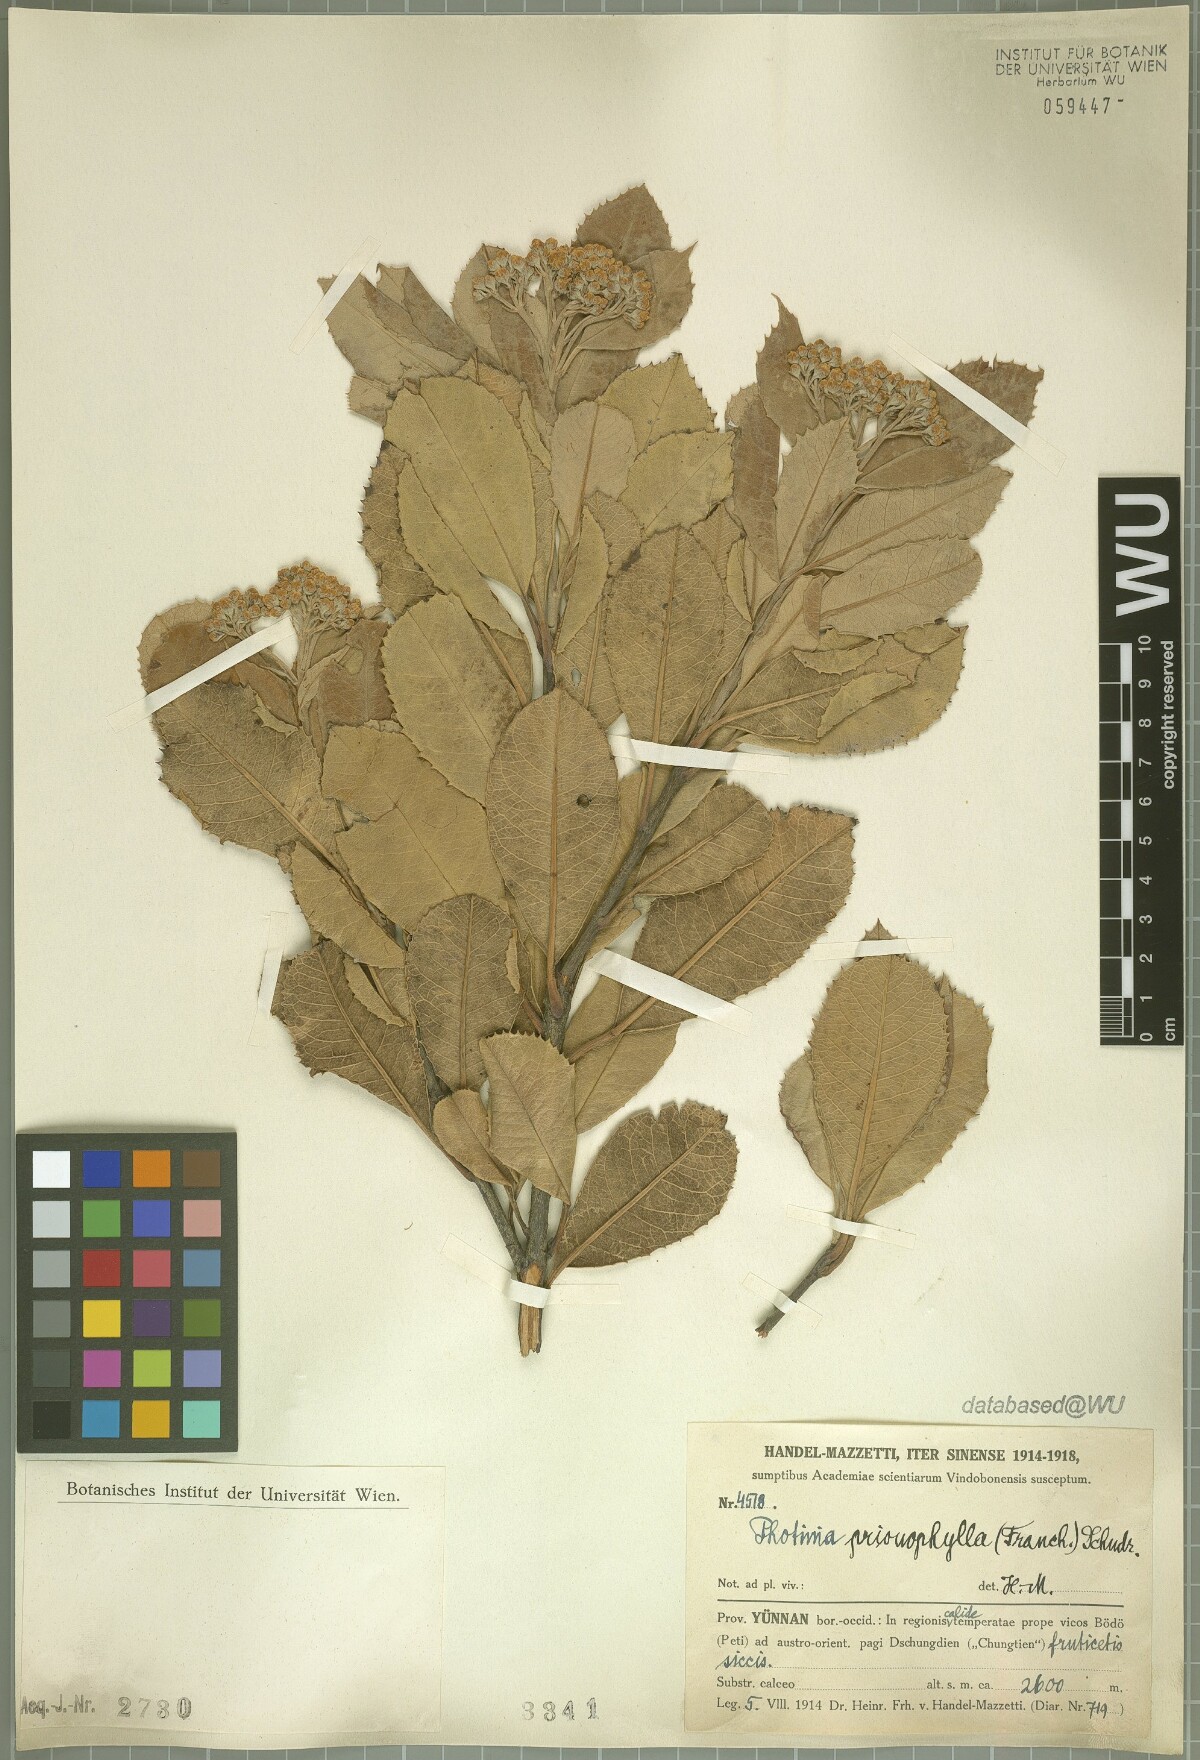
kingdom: Plantae
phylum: Tracheophyta
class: Magnoliopsida
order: Rosales
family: Rosaceae
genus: Photinia
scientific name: Photinia prionophylla
